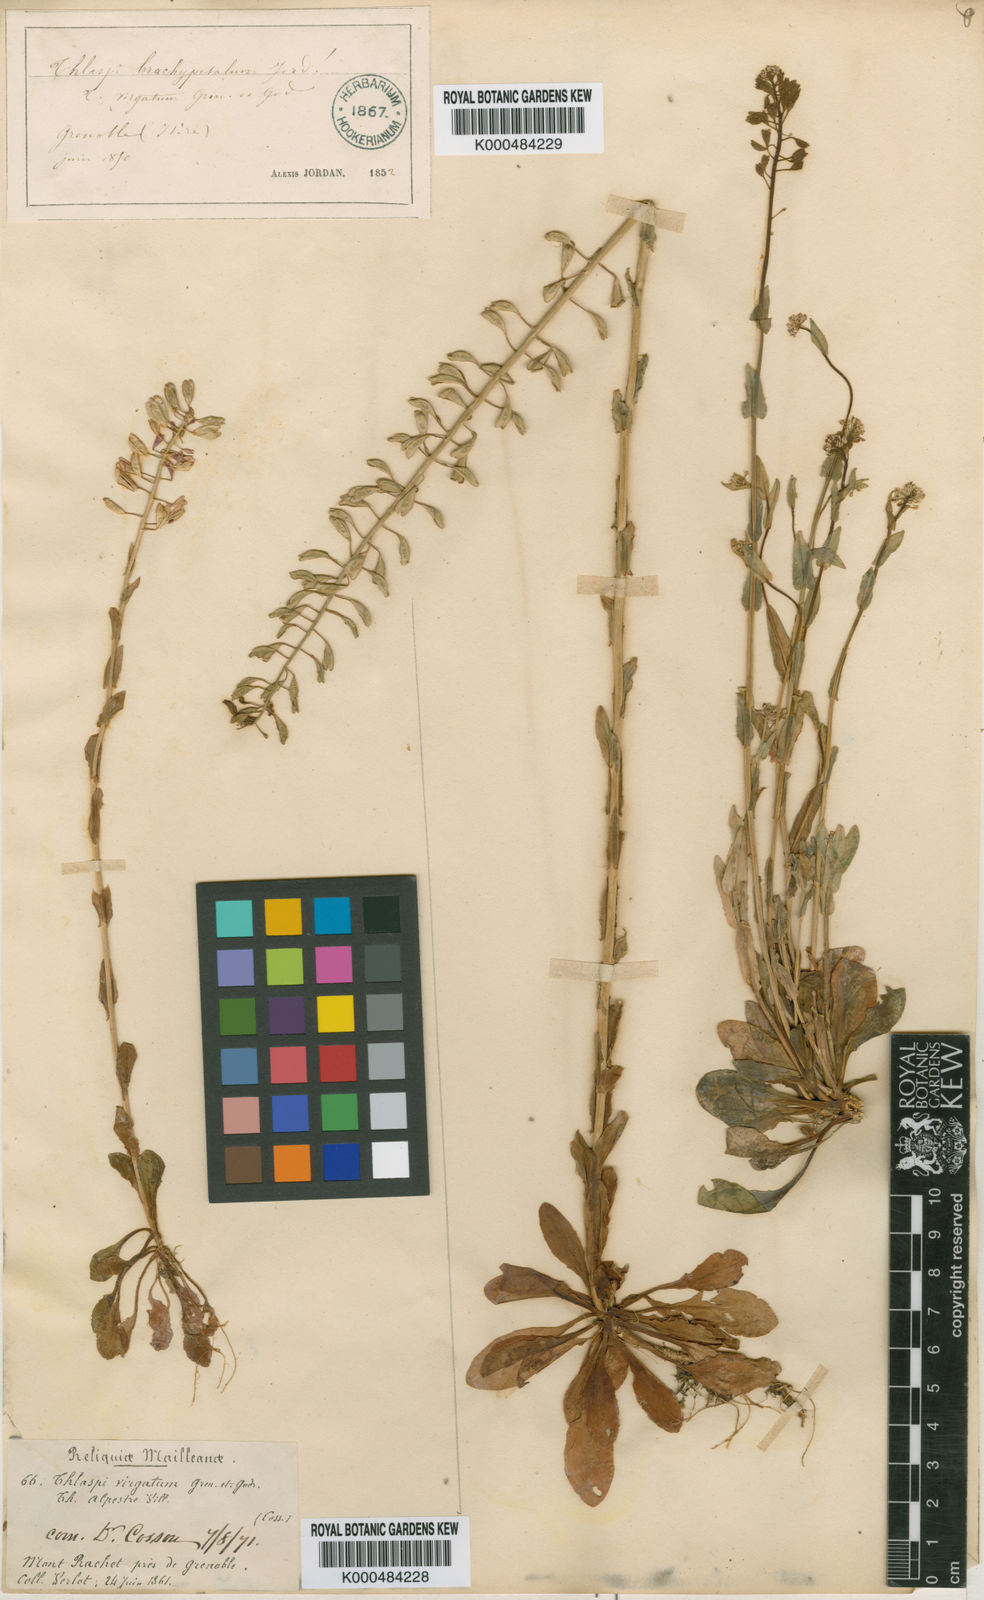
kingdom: Plantae
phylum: Tracheophyta
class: Magnoliopsida
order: Brassicales
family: Brassicaceae
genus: Noccaea
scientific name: Noccaea brachypetala
